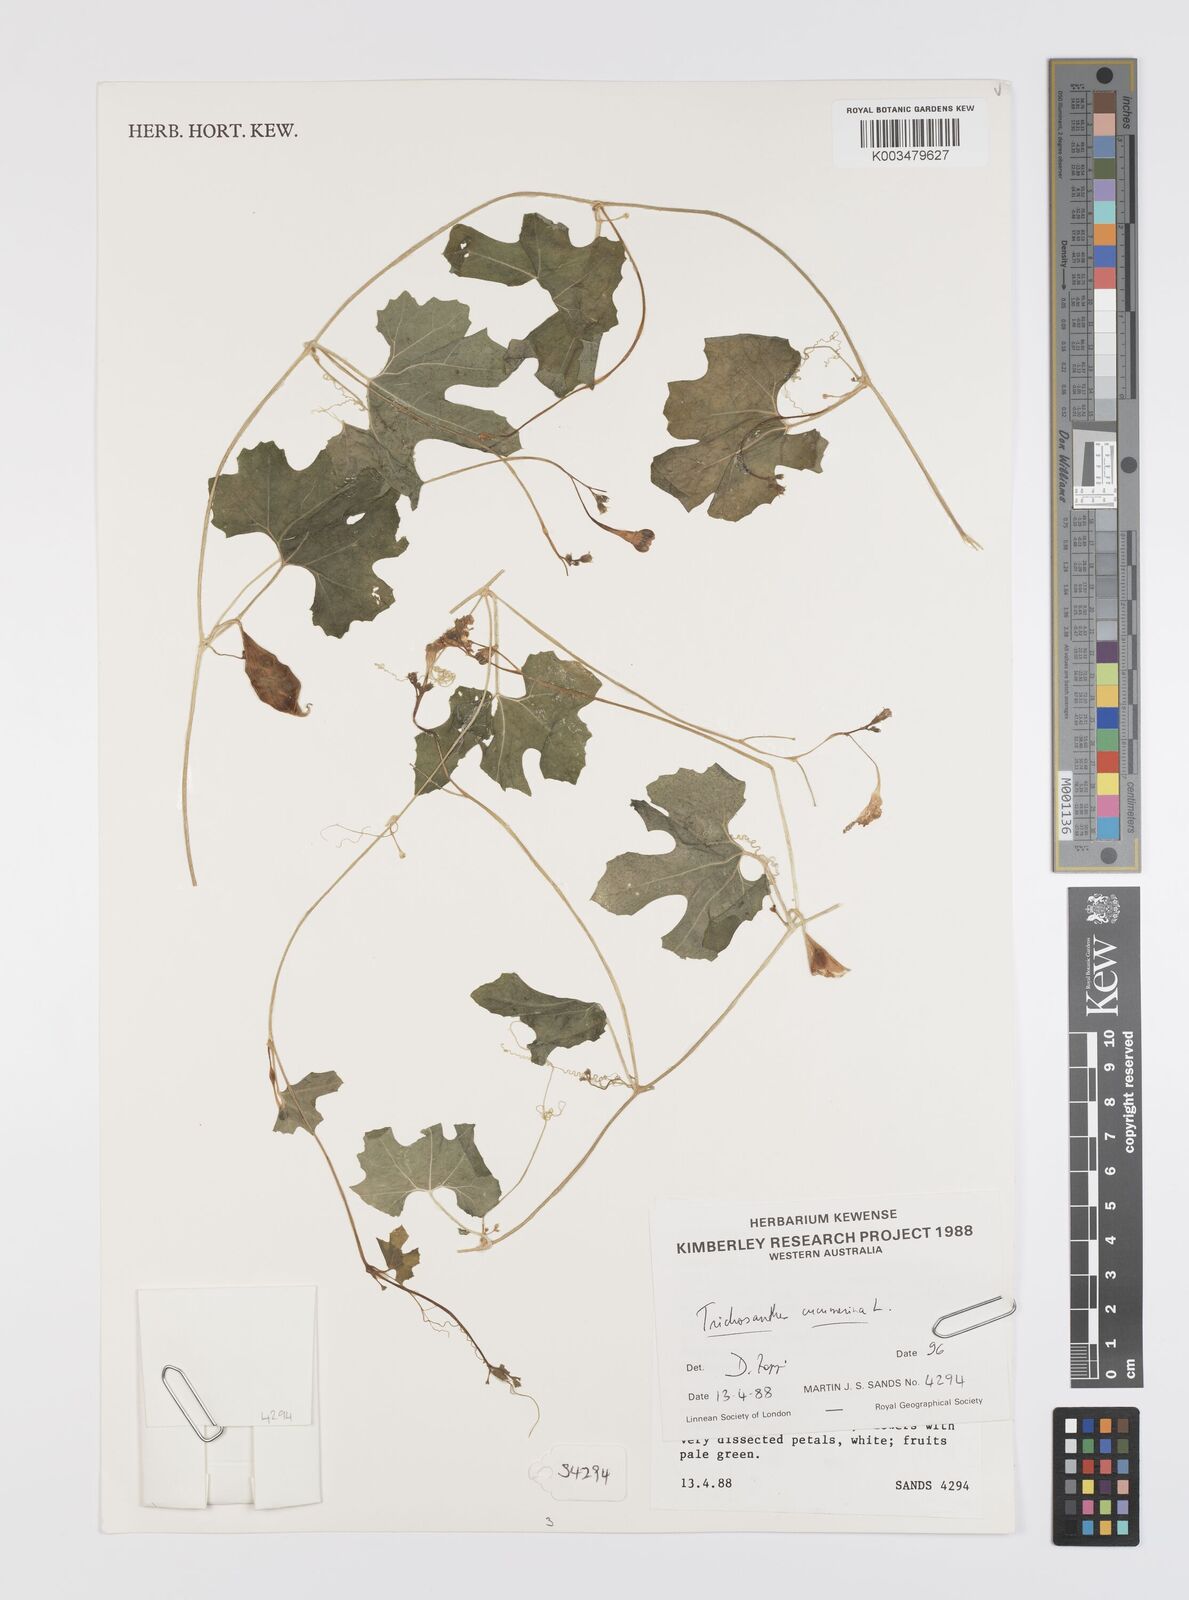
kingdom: Plantae
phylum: Tracheophyta
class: Magnoliopsida
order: Cucurbitales
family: Cucurbitaceae
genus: Trichosanthes
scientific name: Trichosanthes cucumerina
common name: Snakegourd
